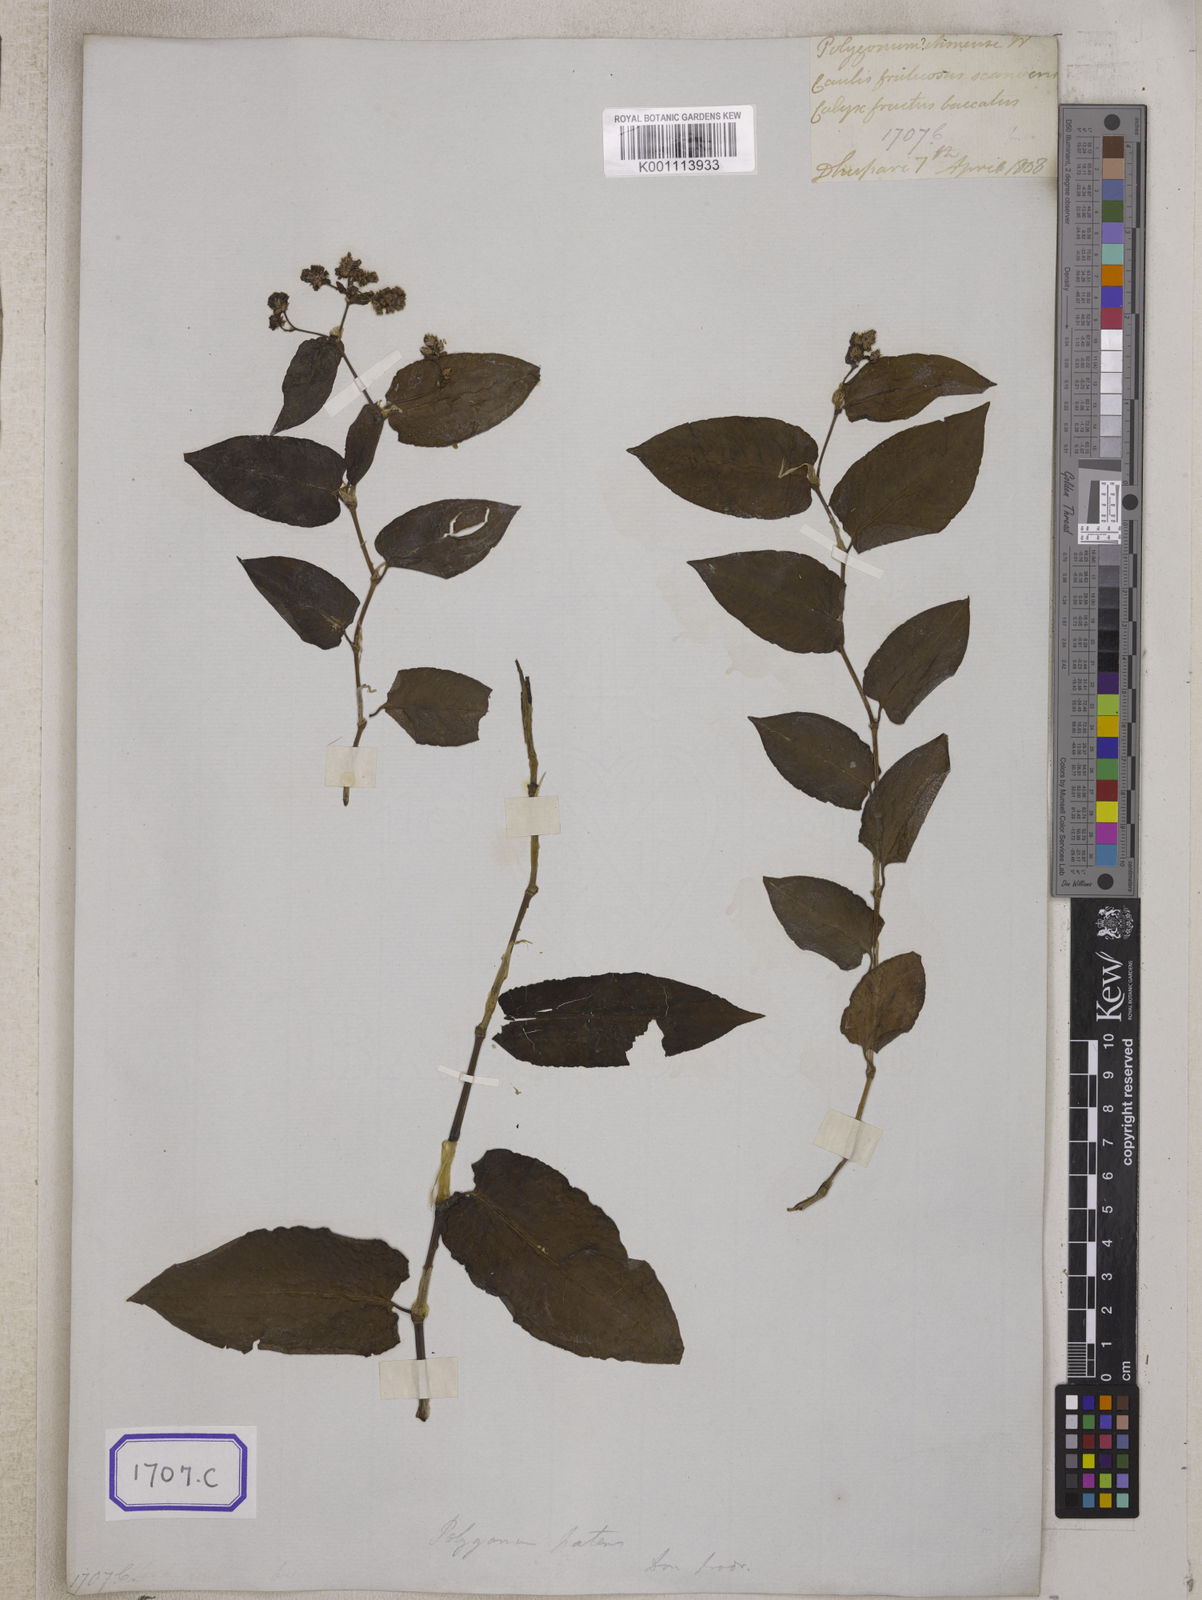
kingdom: Plantae
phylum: Tracheophyta
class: Magnoliopsida
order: Caryophyllales
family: Polygonaceae
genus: Persicaria
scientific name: Persicaria chinensis
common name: Chinese knotweed
